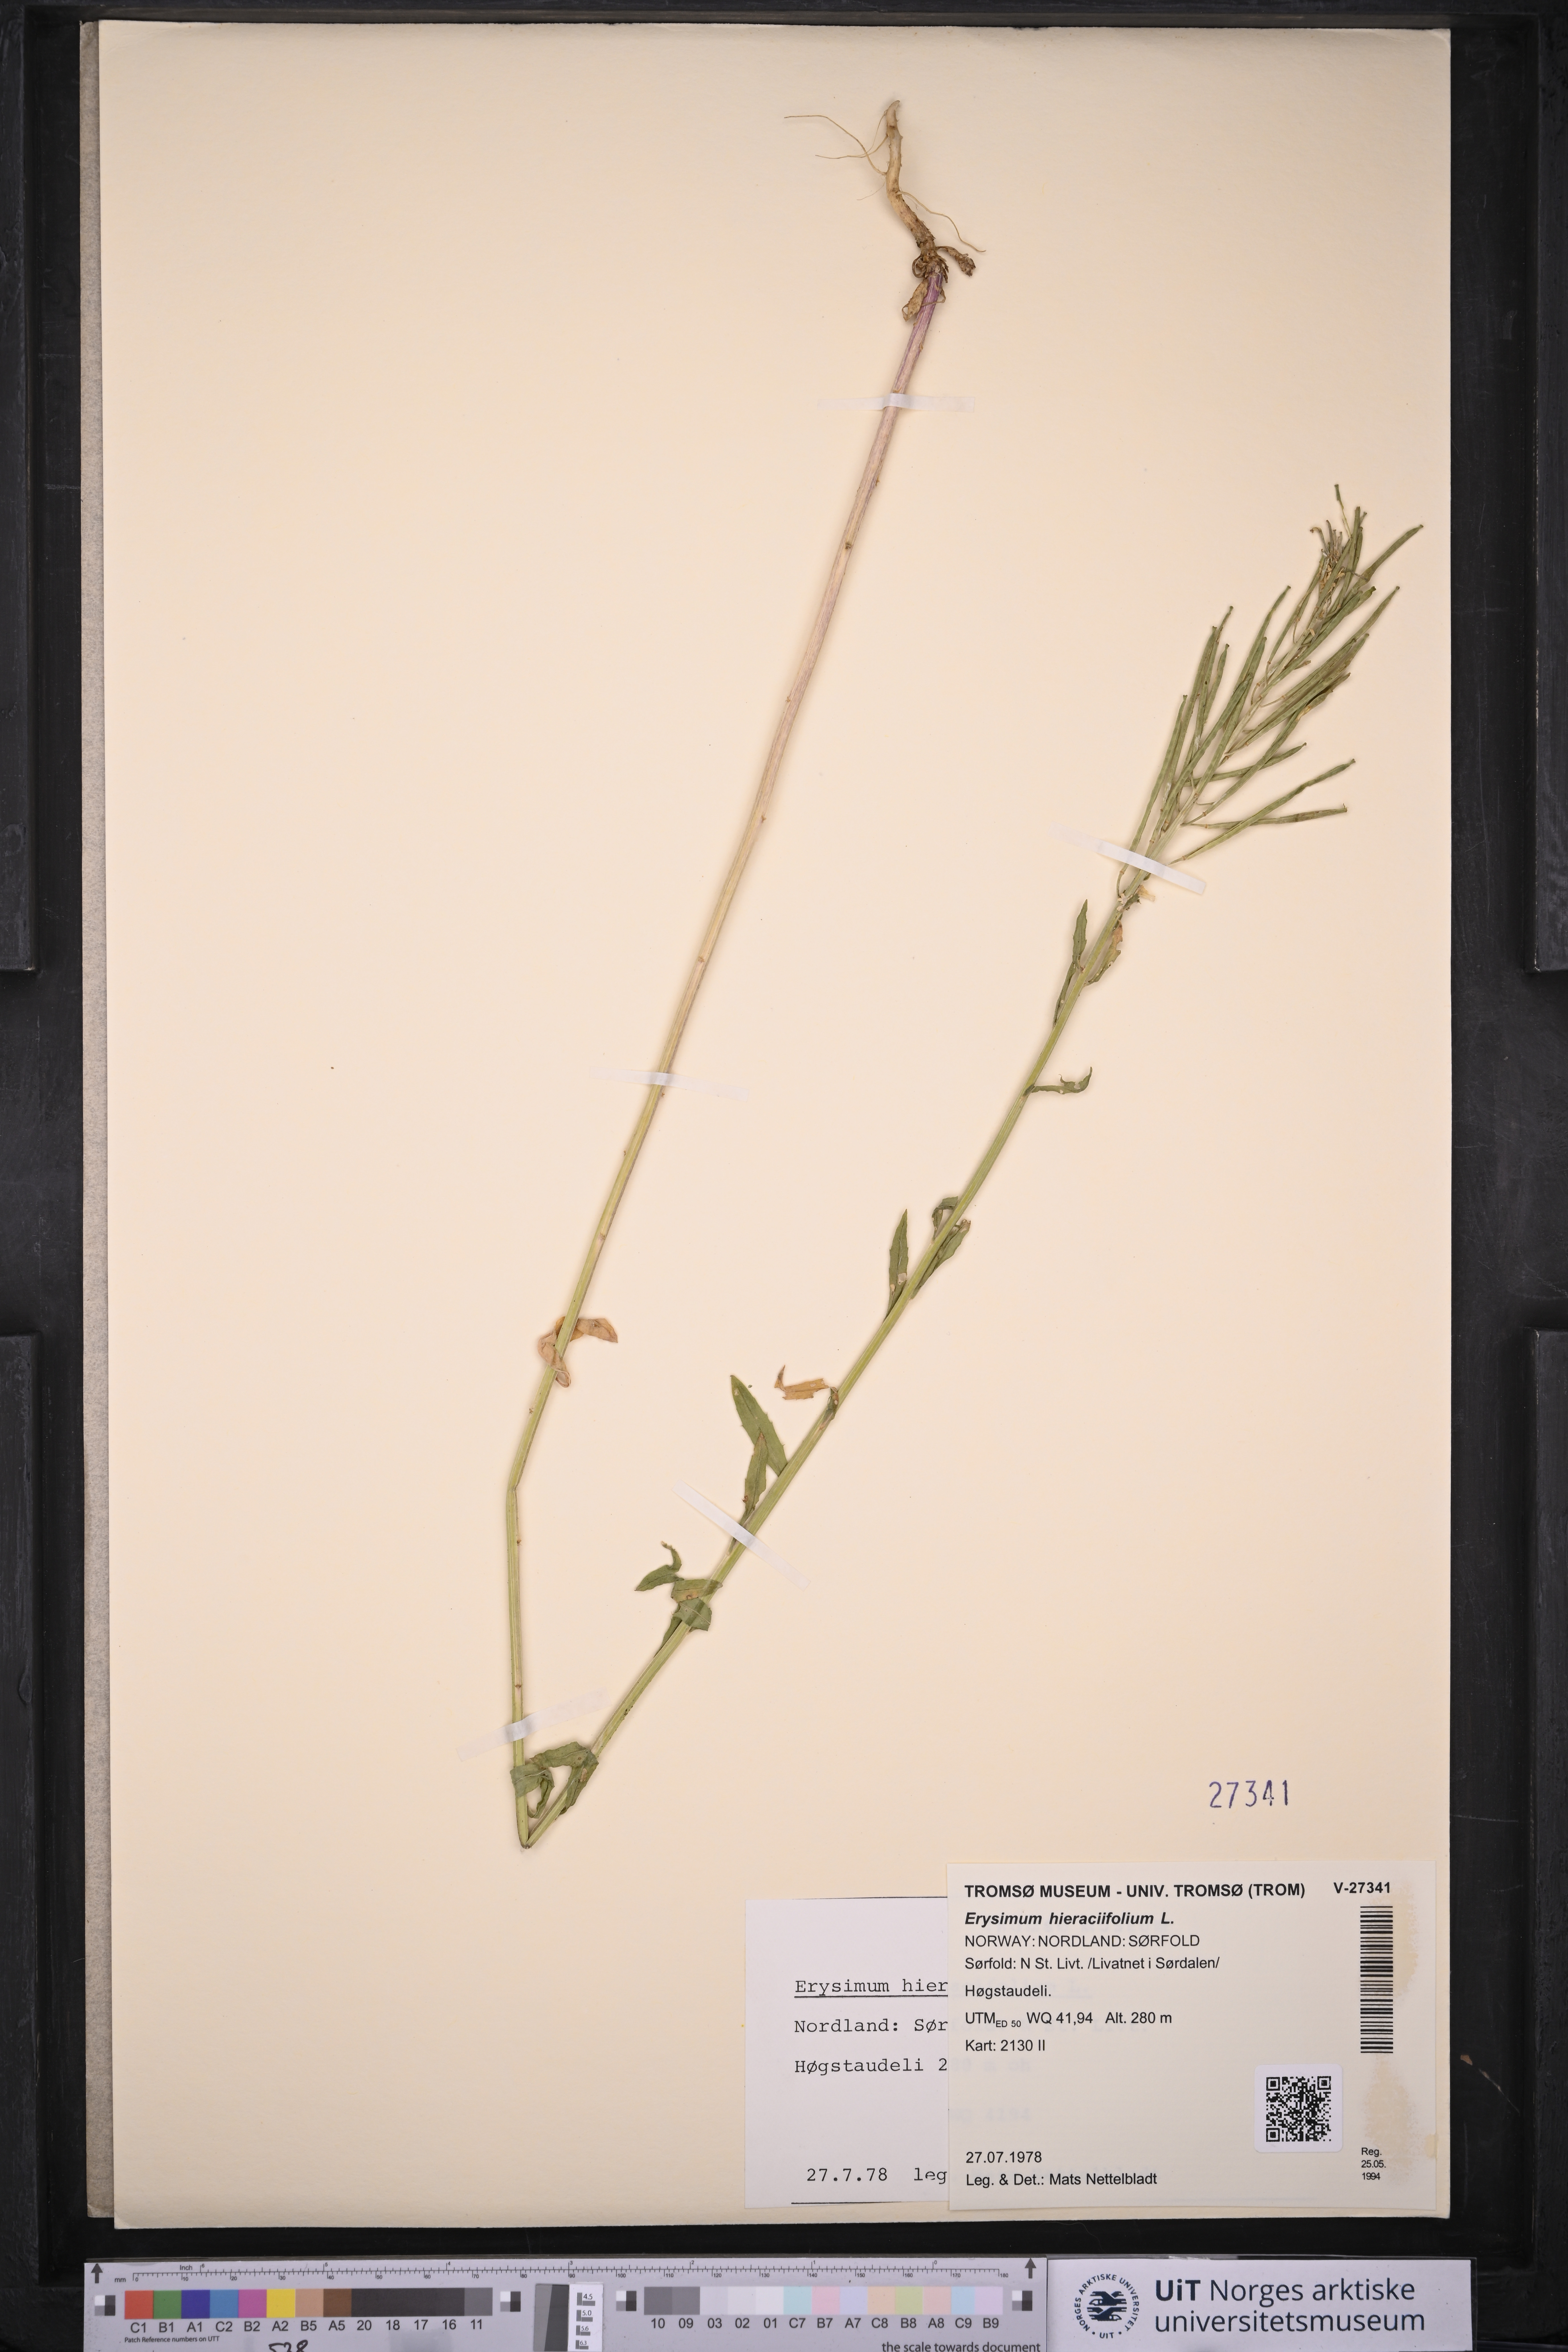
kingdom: Plantae
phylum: Tracheophyta
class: Magnoliopsida
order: Brassicales
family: Brassicaceae
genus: Erysimum
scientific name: Erysimum virgatum
